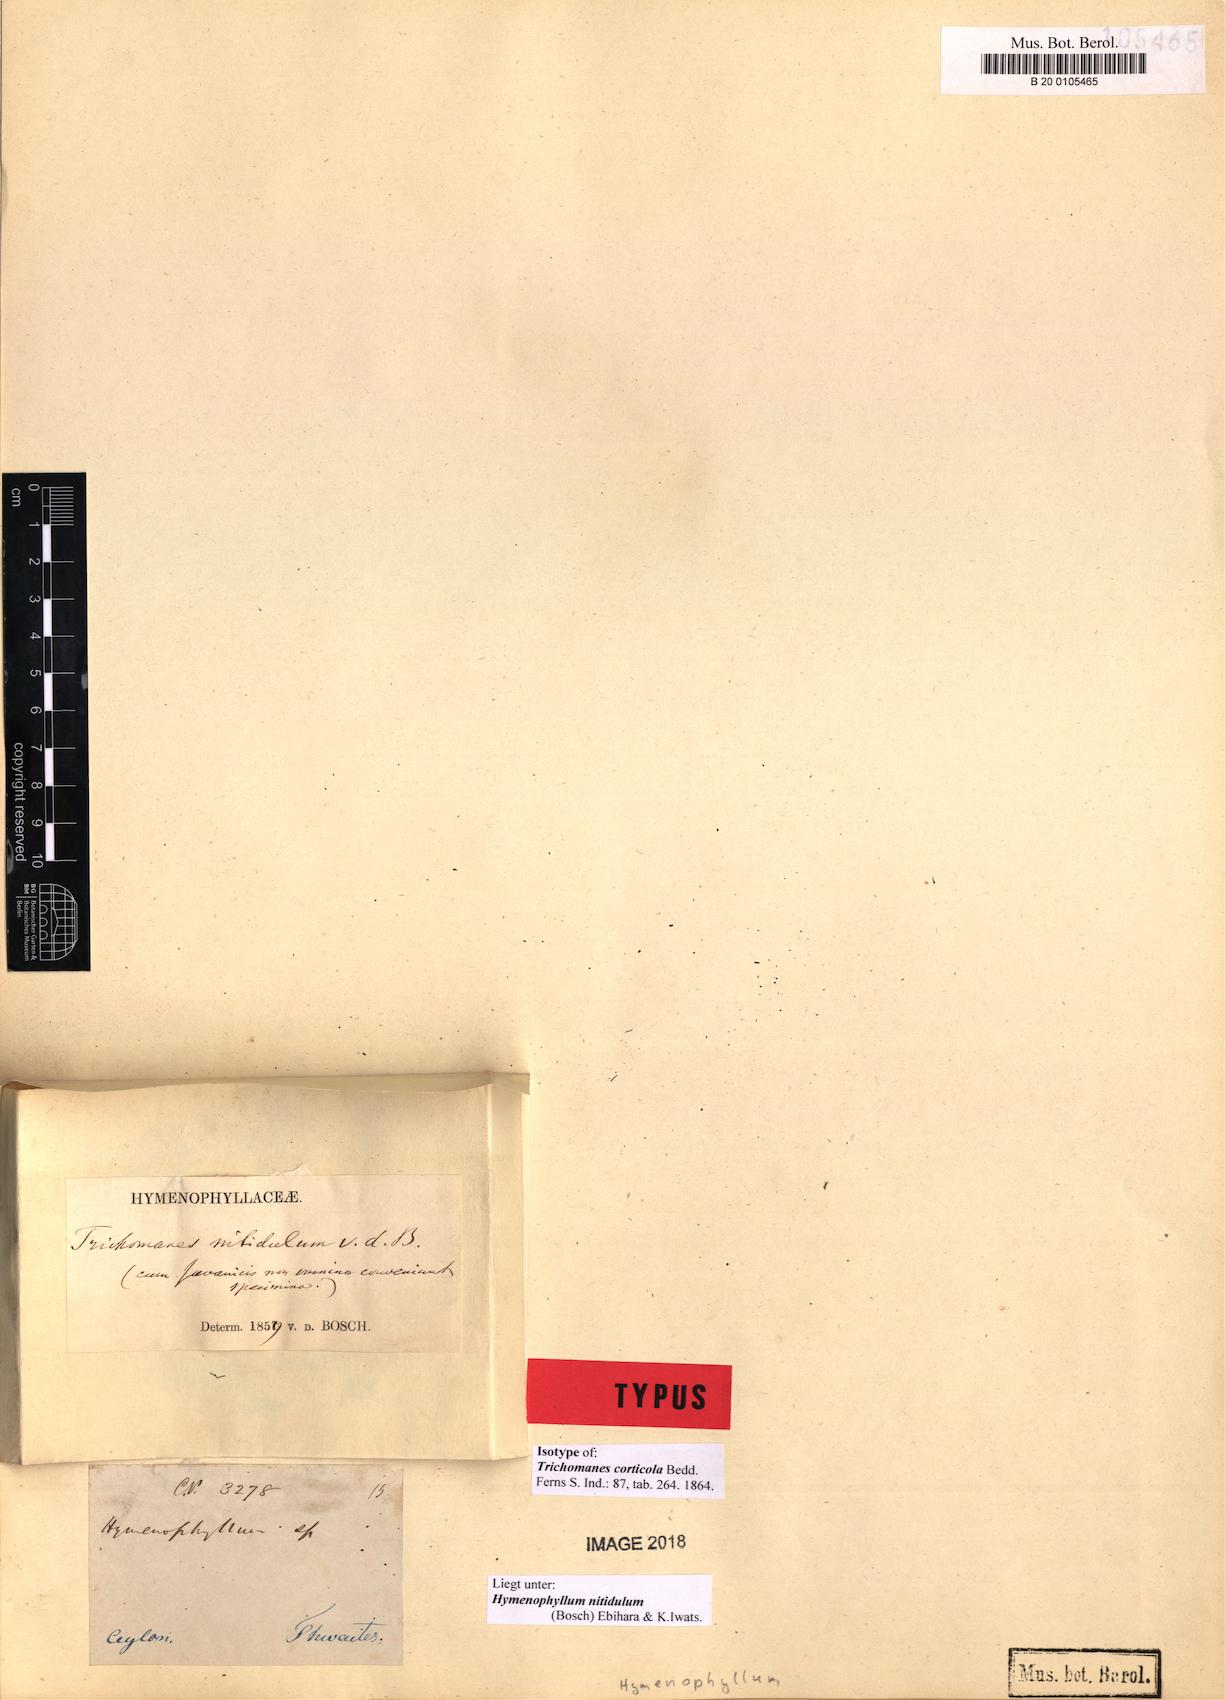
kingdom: Plantae
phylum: Tracheophyta
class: Polypodiopsida
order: Hymenophyllales
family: Hymenophyllaceae
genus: Hymenophyllum
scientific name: Hymenophyllum nitidulum
